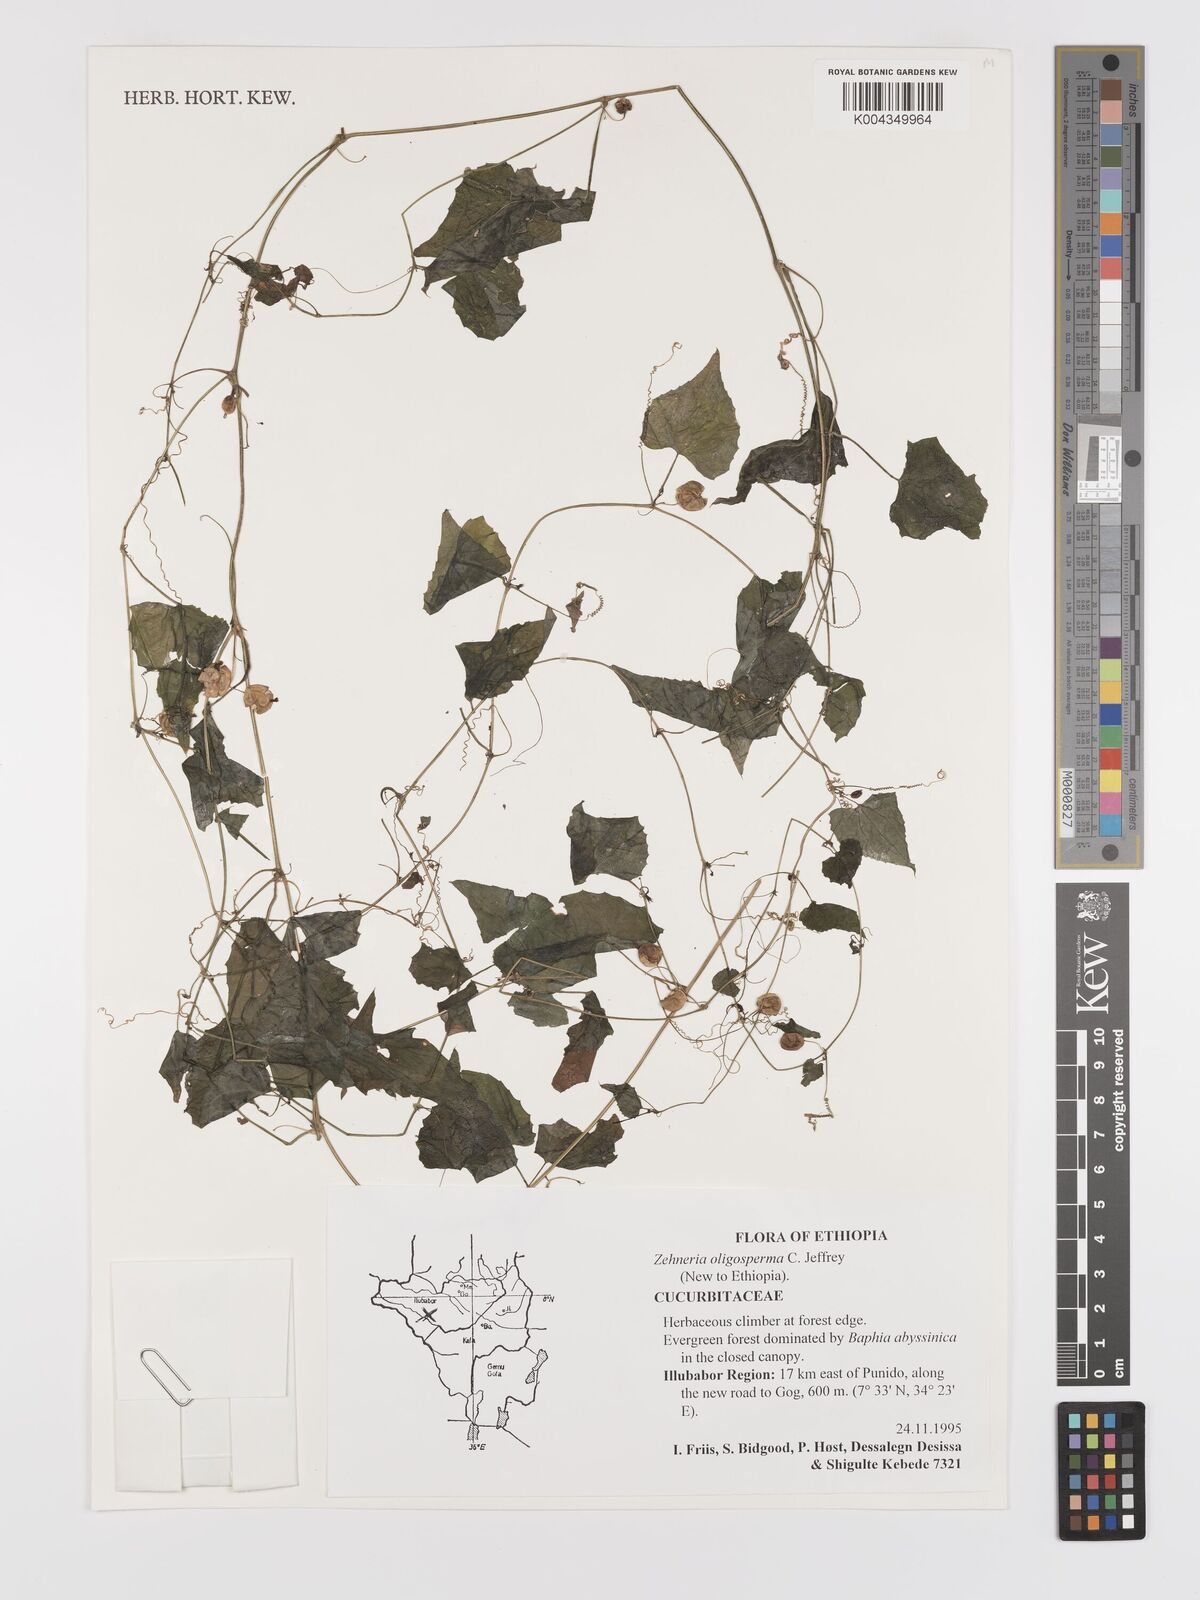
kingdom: Plantae
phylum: Tracheophyta
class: Magnoliopsida
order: Cucurbitales
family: Cucurbitaceae
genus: Zehneria
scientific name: Zehneria oligosperma
